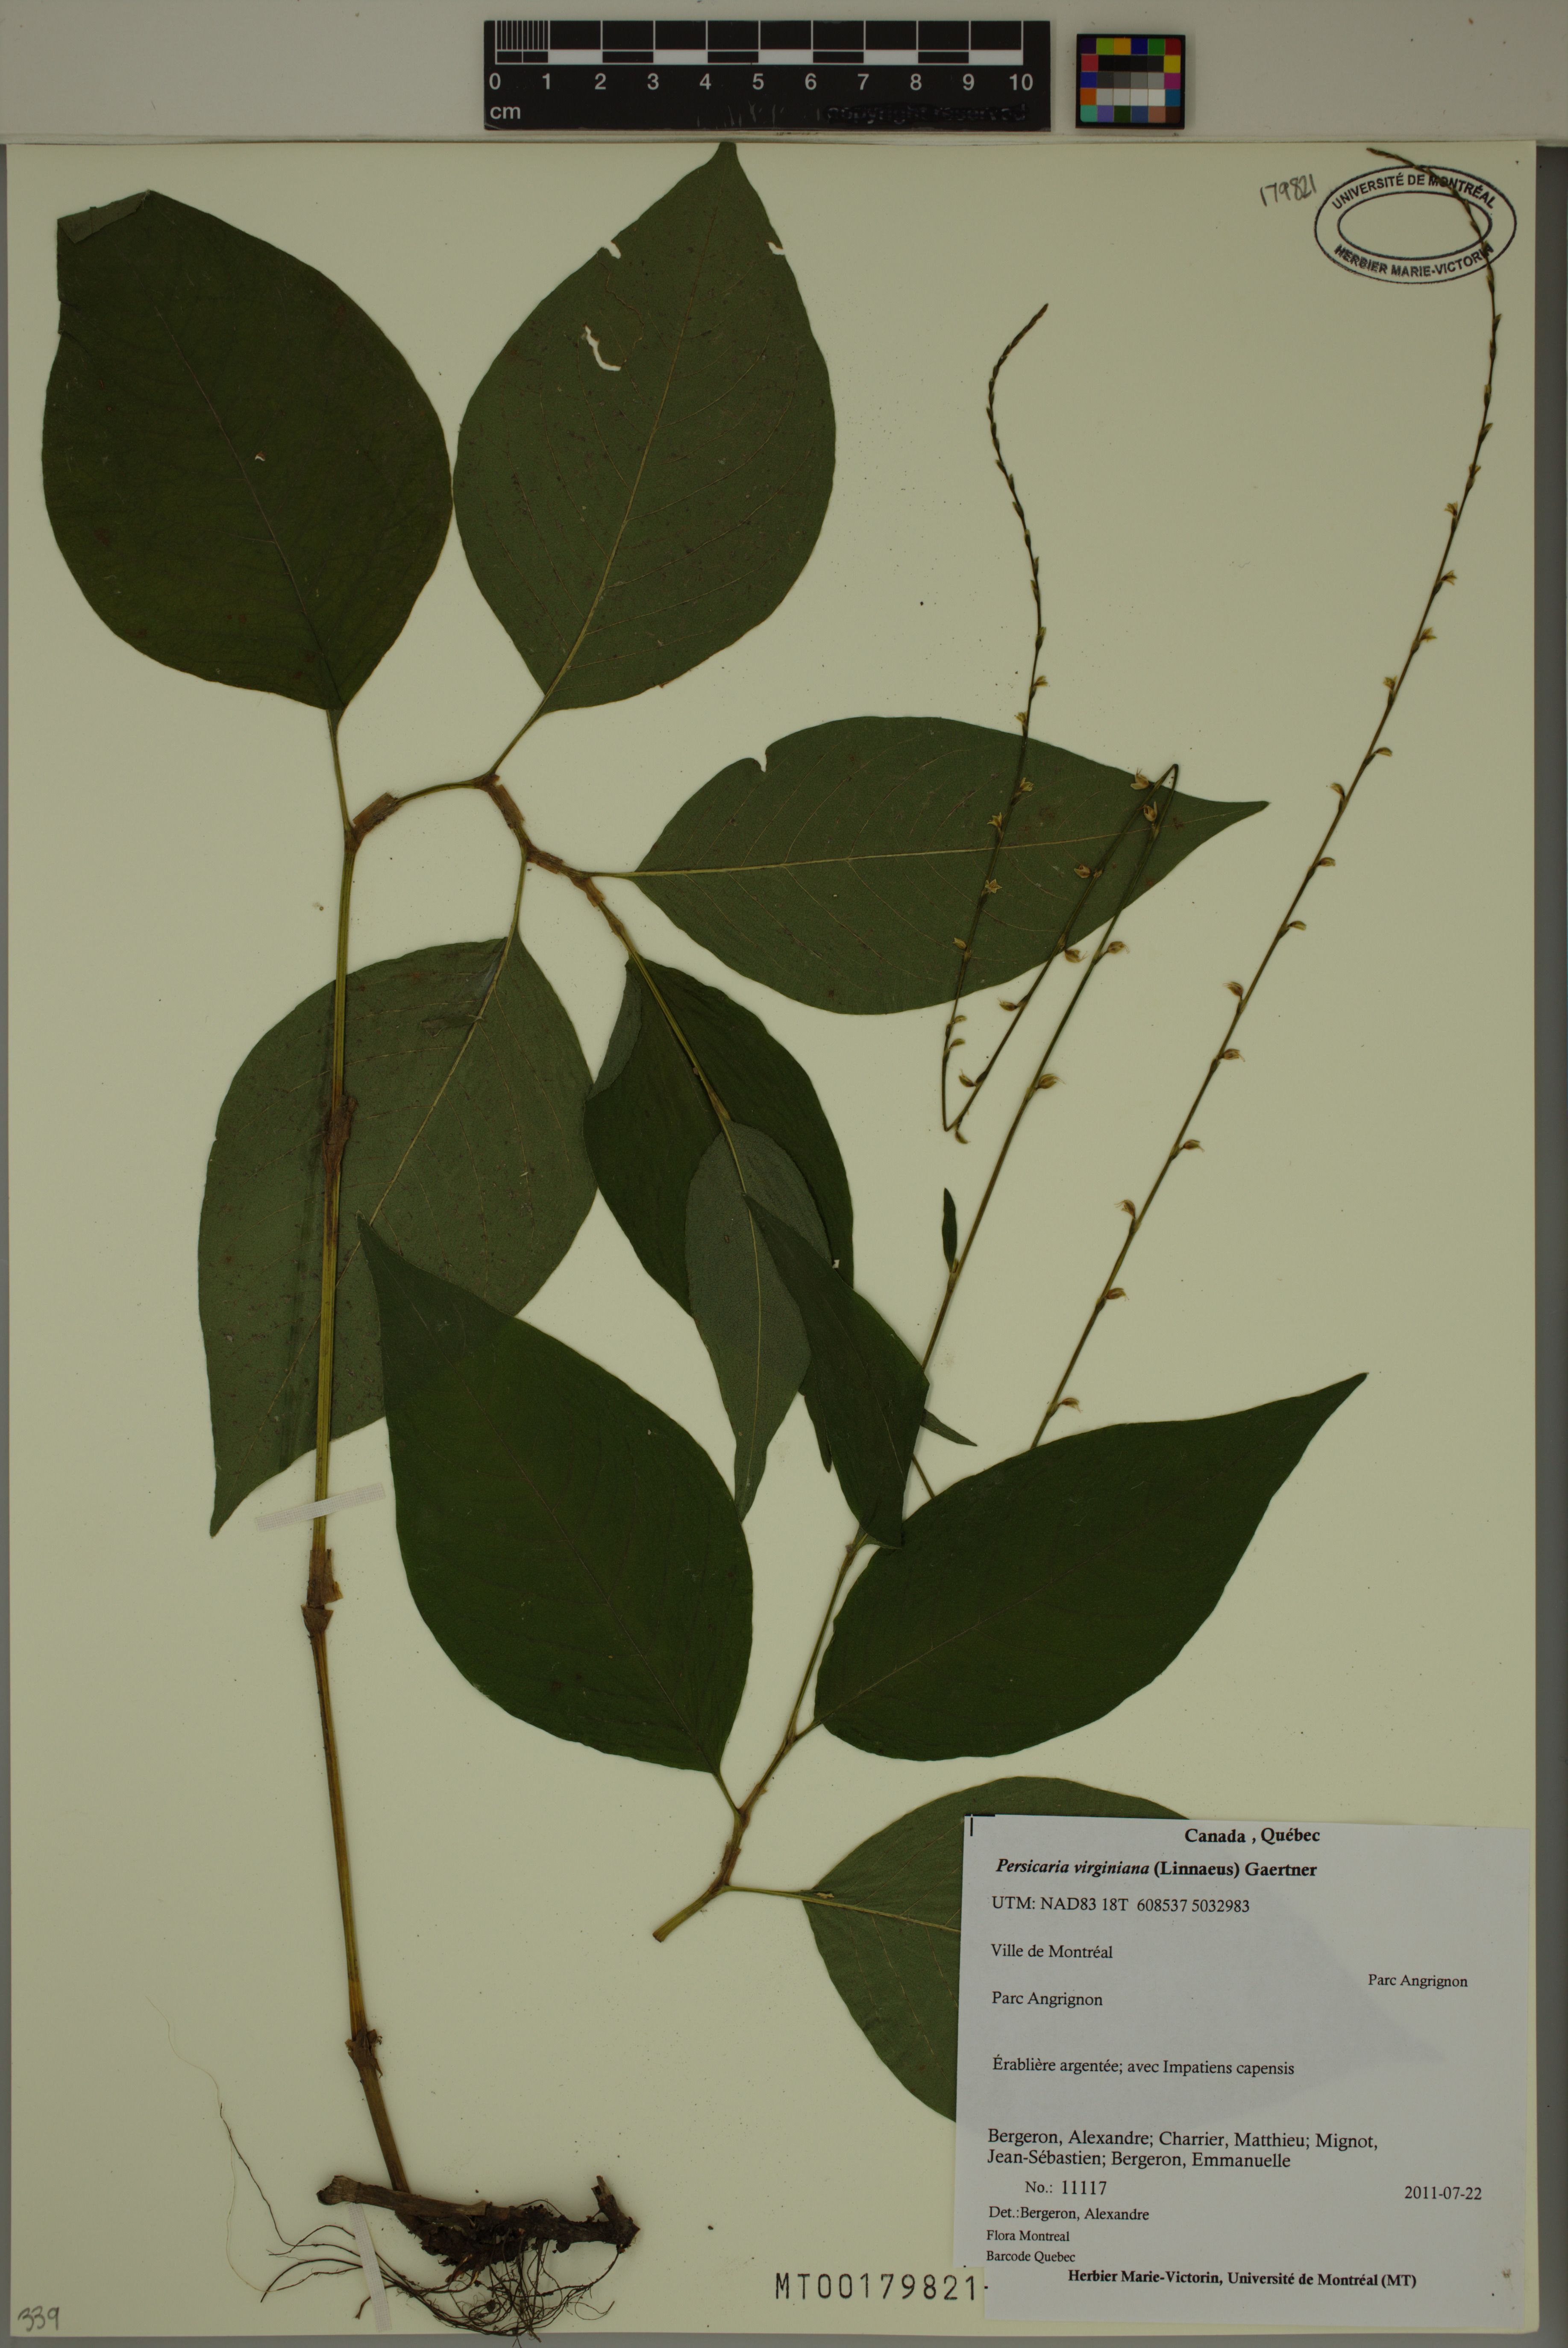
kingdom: Plantae
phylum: Tracheophyta
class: Magnoliopsida
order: Caryophyllales
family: Polygonaceae
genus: Persicaria
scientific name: Persicaria virginiana
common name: Jumpseed
